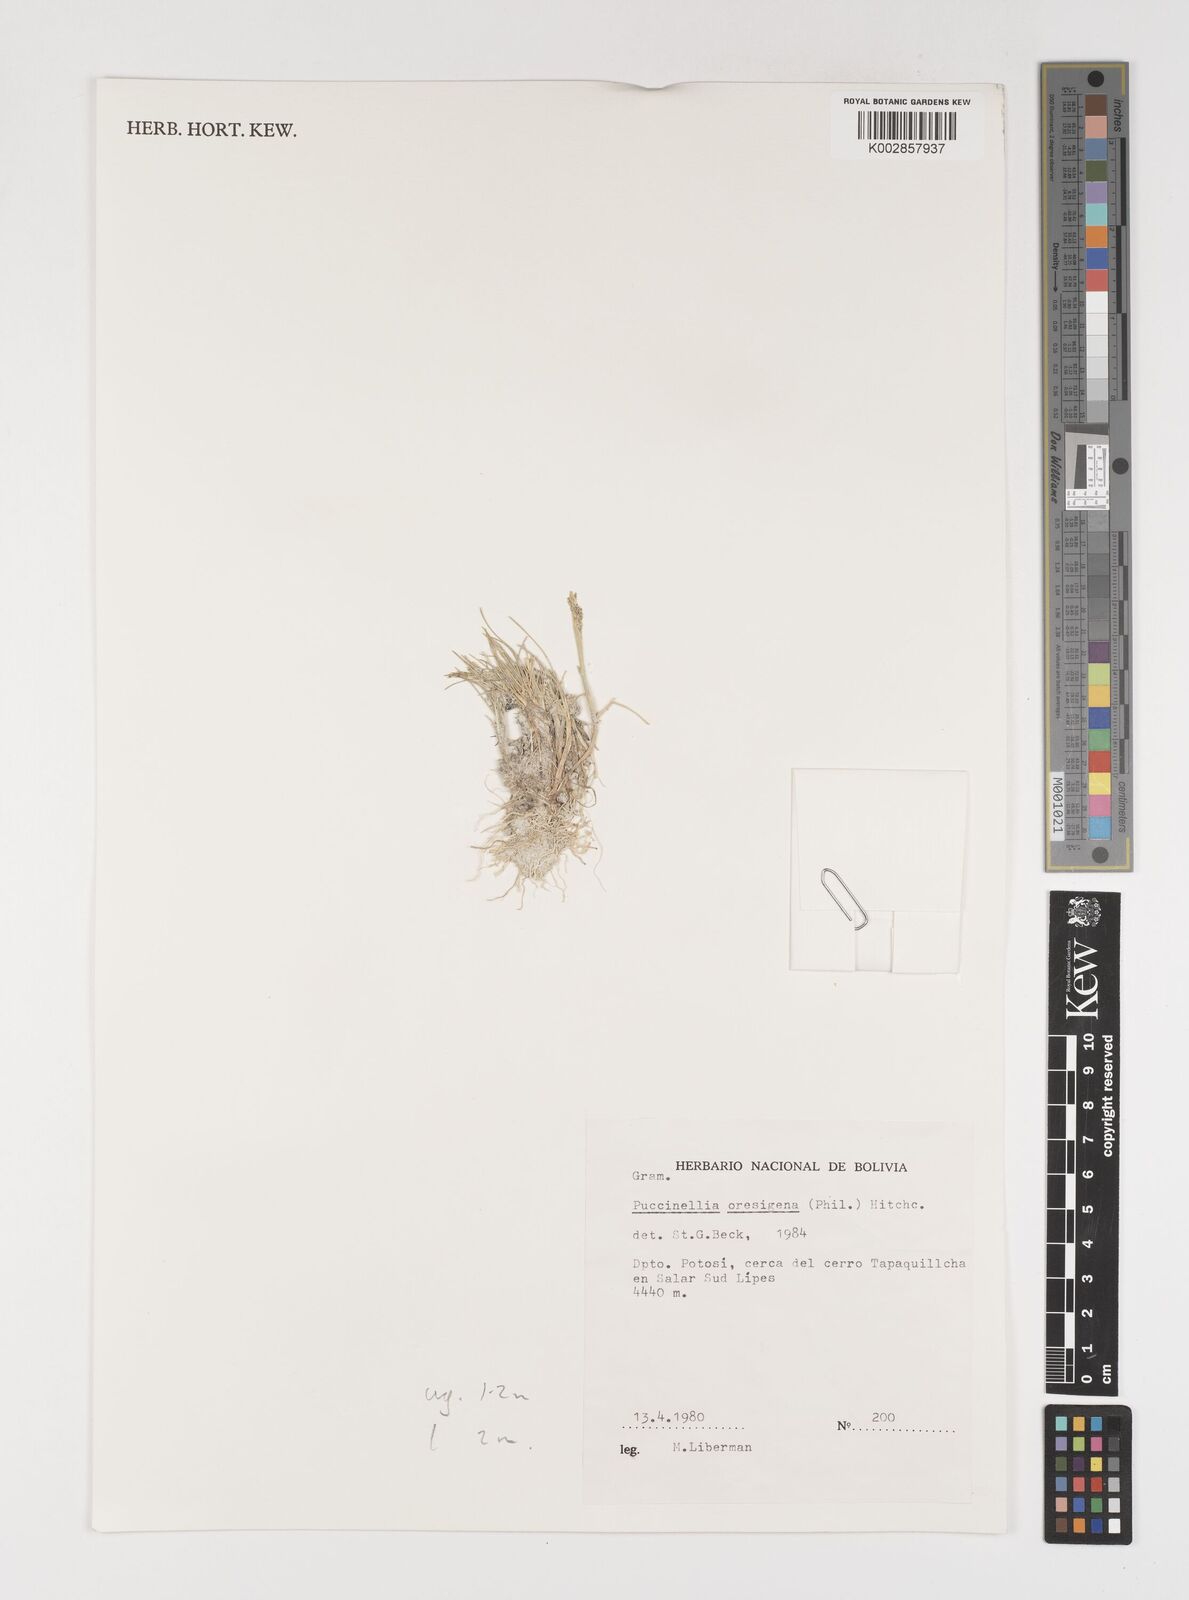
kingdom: Plantae
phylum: Tracheophyta
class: Liliopsida
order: Poales
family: Poaceae
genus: Puccinellia
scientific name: Puccinellia frigida
